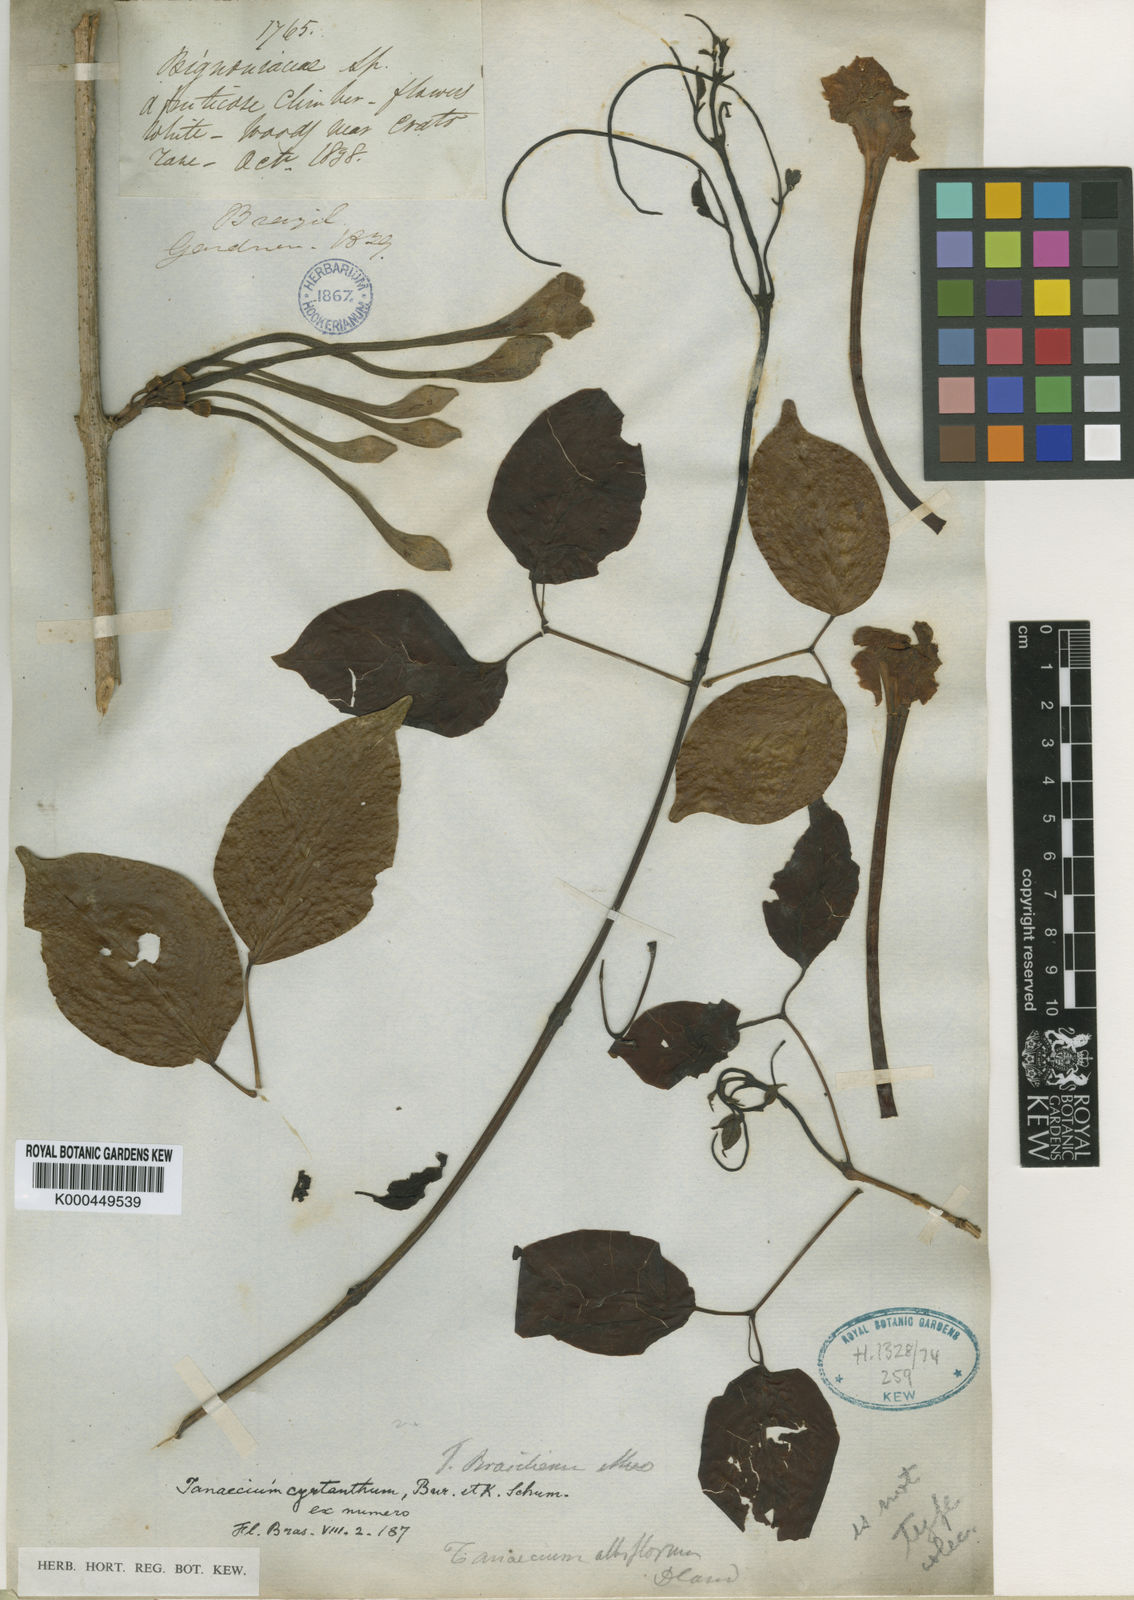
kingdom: Plantae
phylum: Tracheophyta
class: Magnoliopsida
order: Lamiales
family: Bignoniaceae
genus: Tanaecium
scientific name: Tanaecium cyrtanthum
